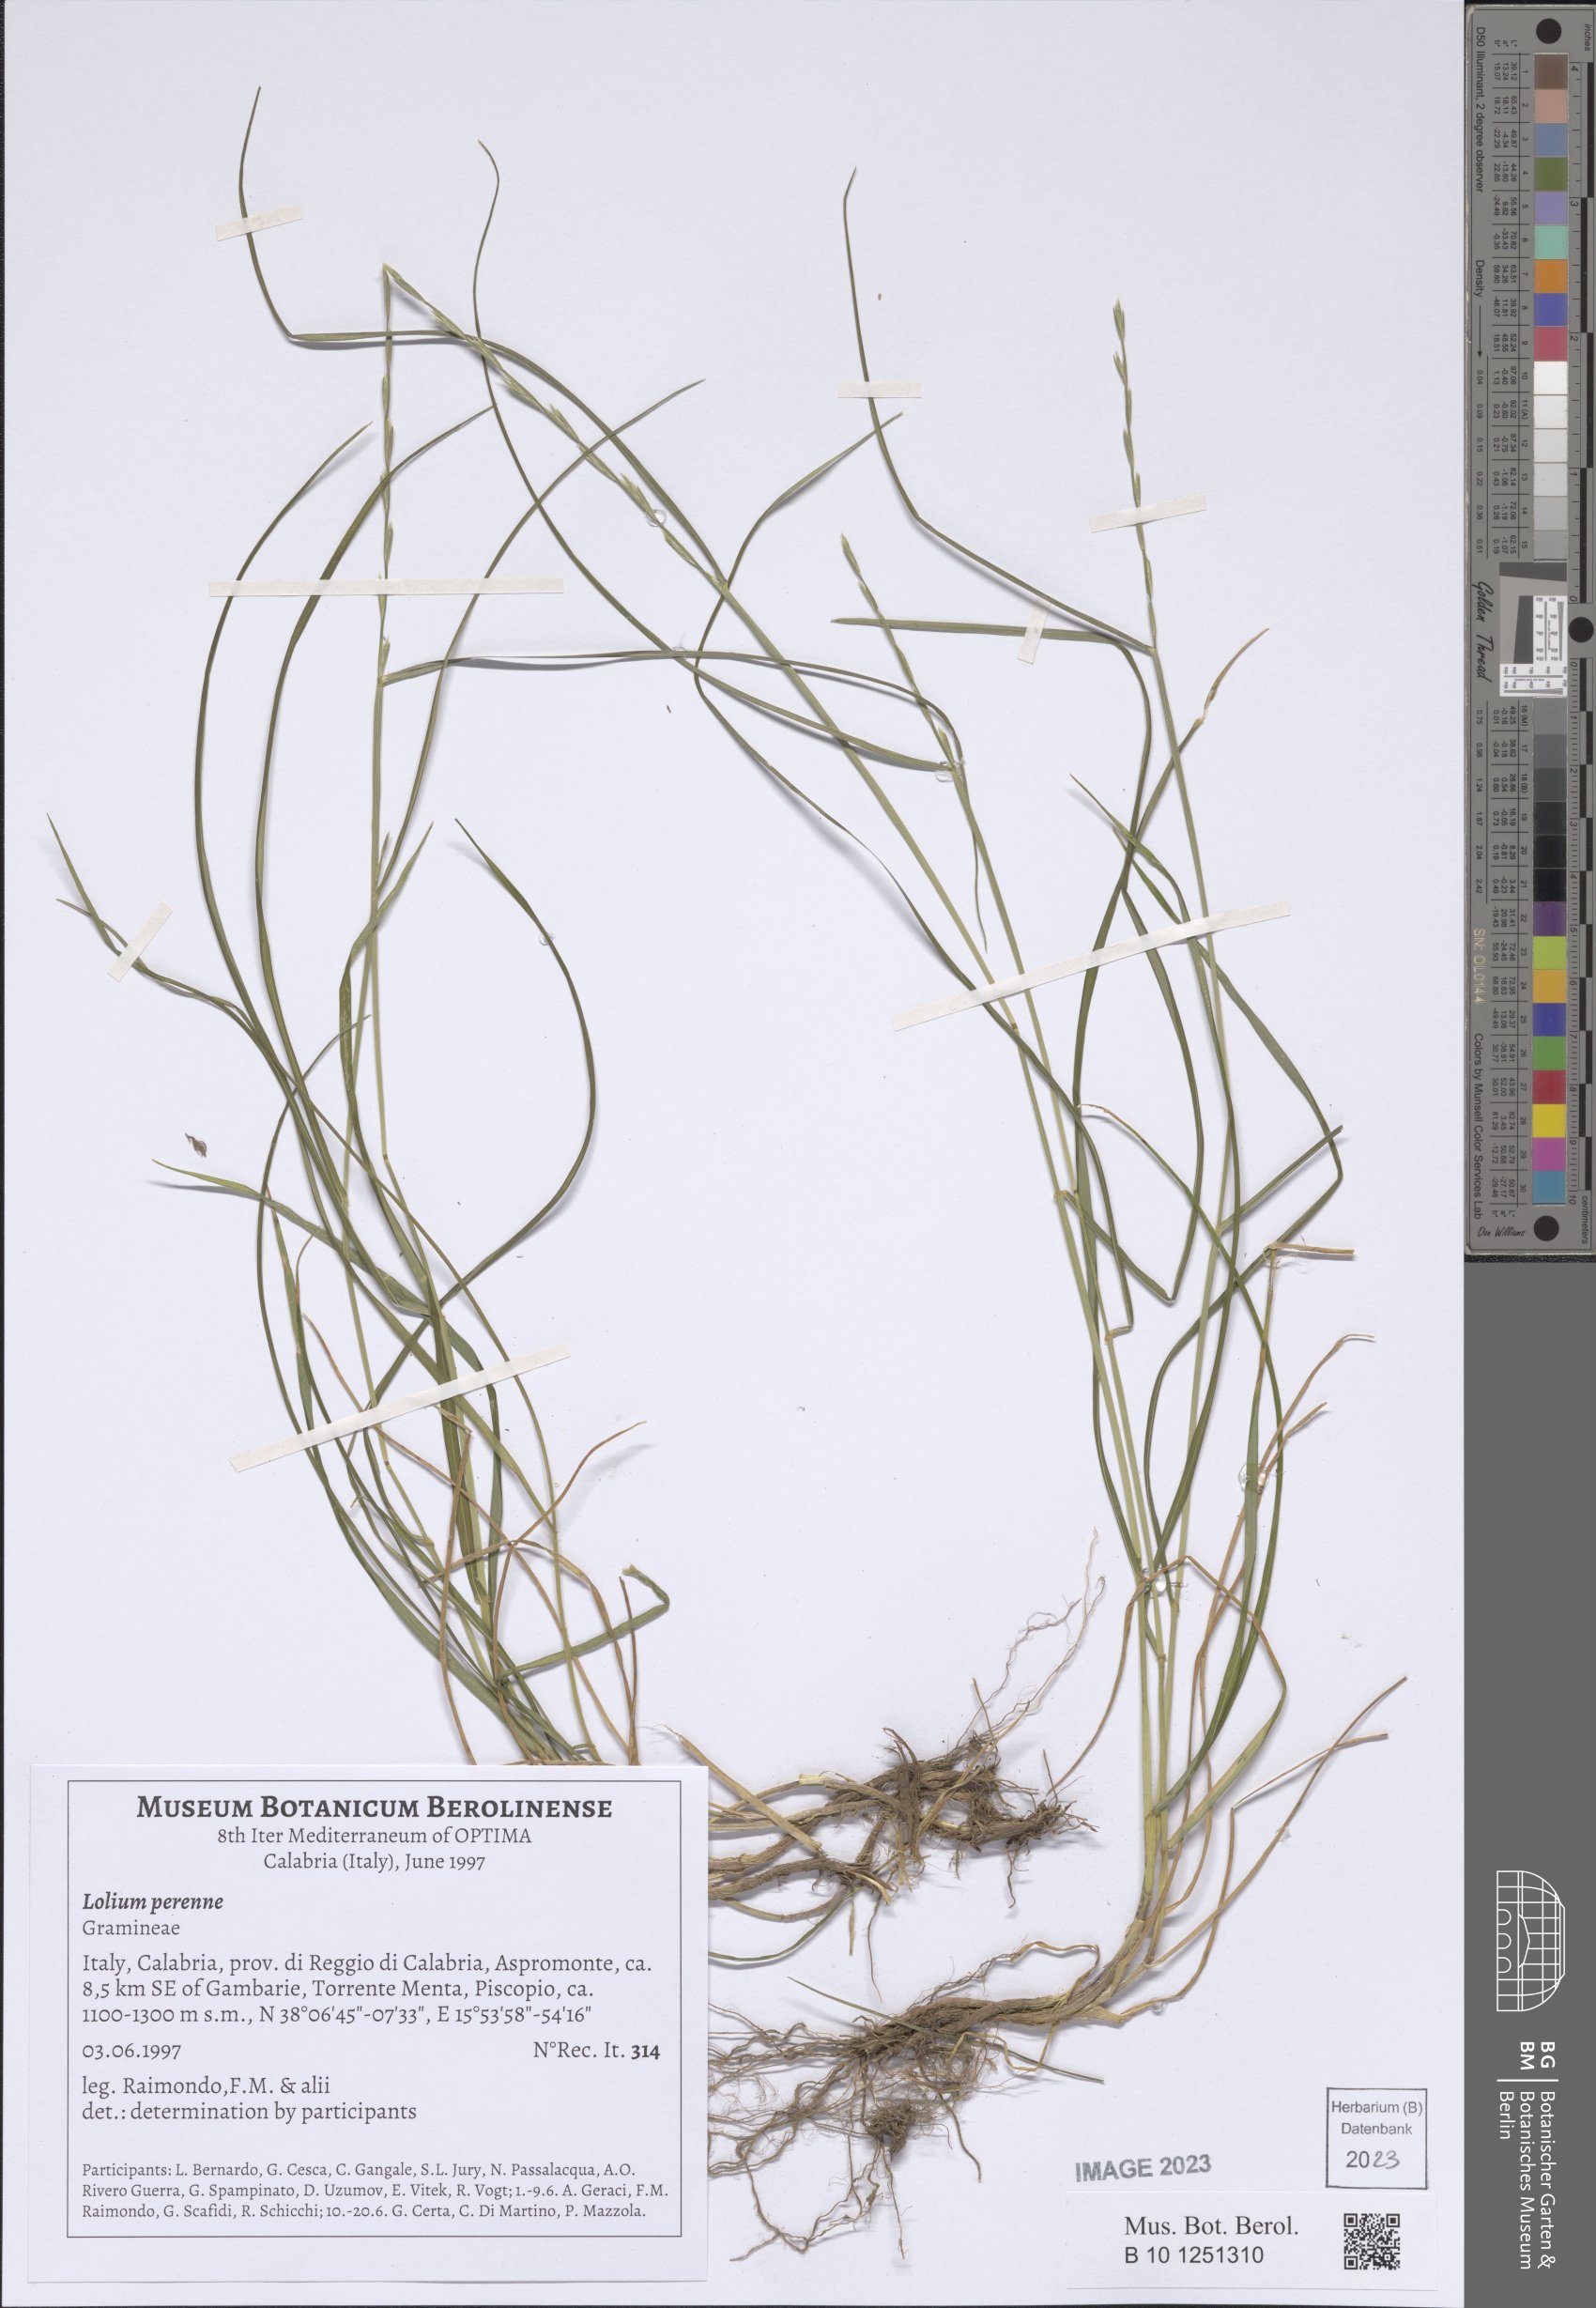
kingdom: Plantae
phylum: Tracheophyta
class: Liliopsida
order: Poales
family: Poaceae
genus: Lolium
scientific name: Lolium perenne
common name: Perennial ryegrass
